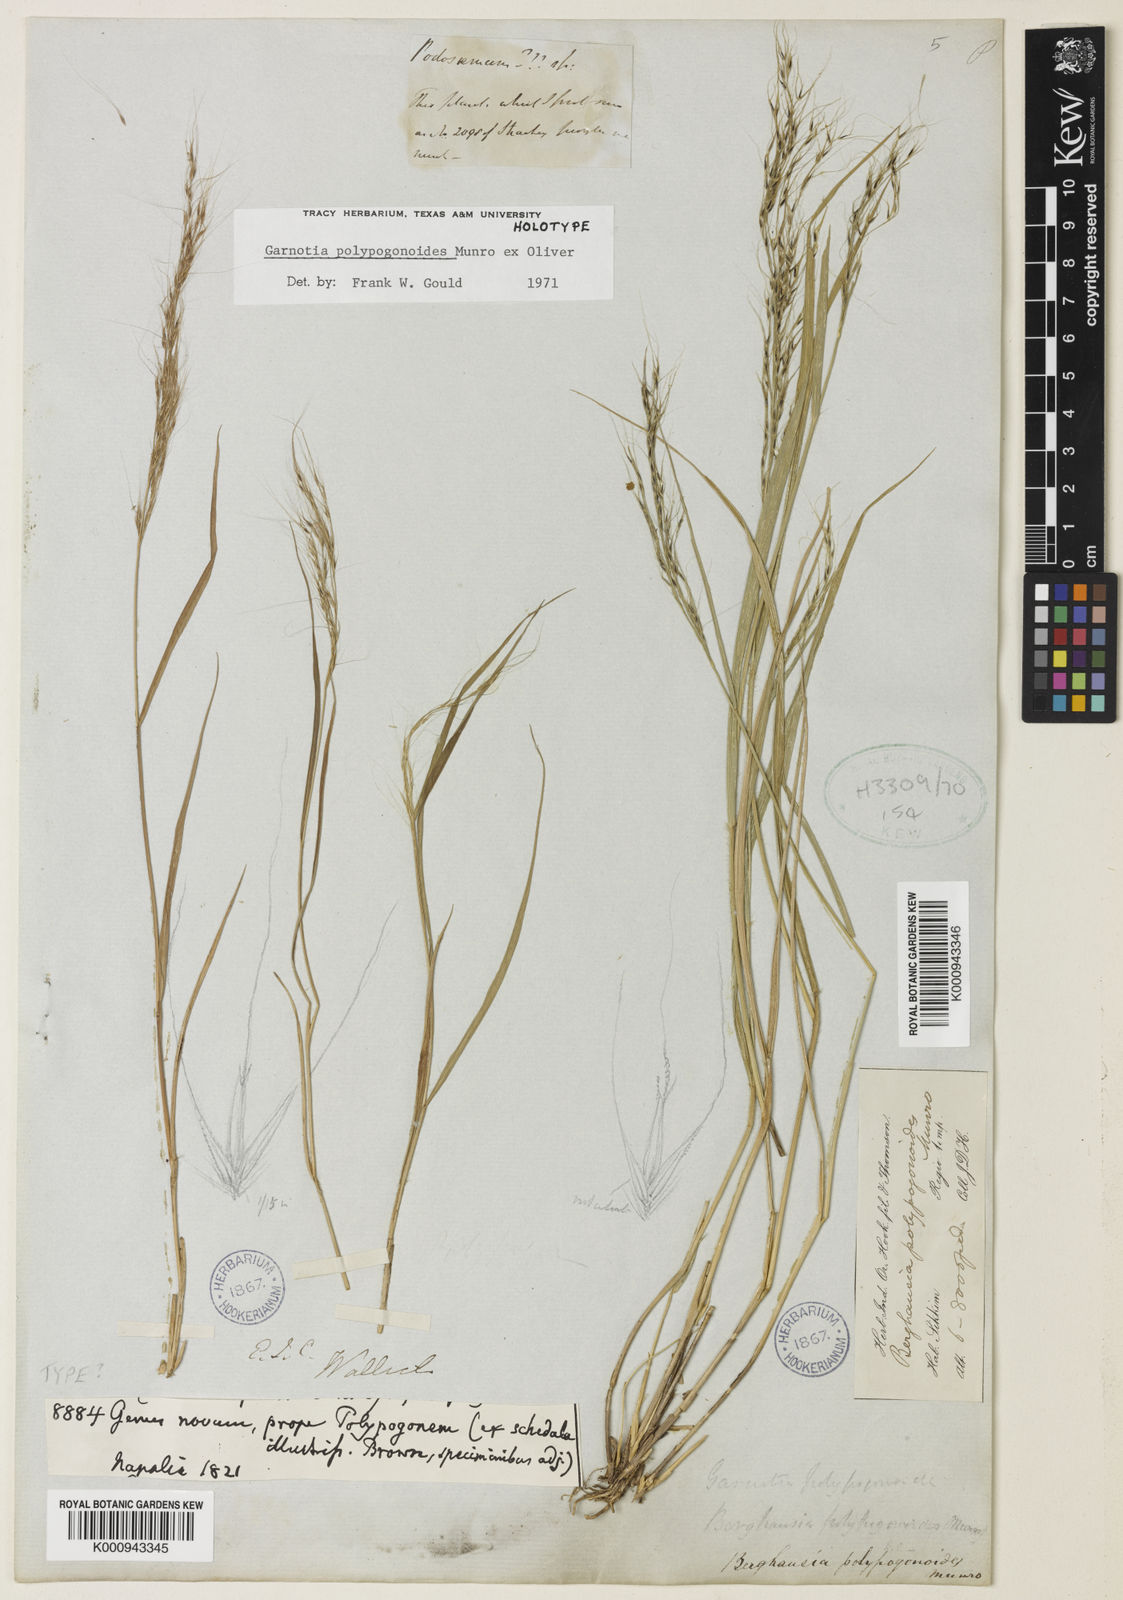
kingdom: Plantae
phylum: Tracheophyta
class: Liliopsida
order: Poales
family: Poaceae
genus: Garnotia
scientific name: Garnotia emodi
